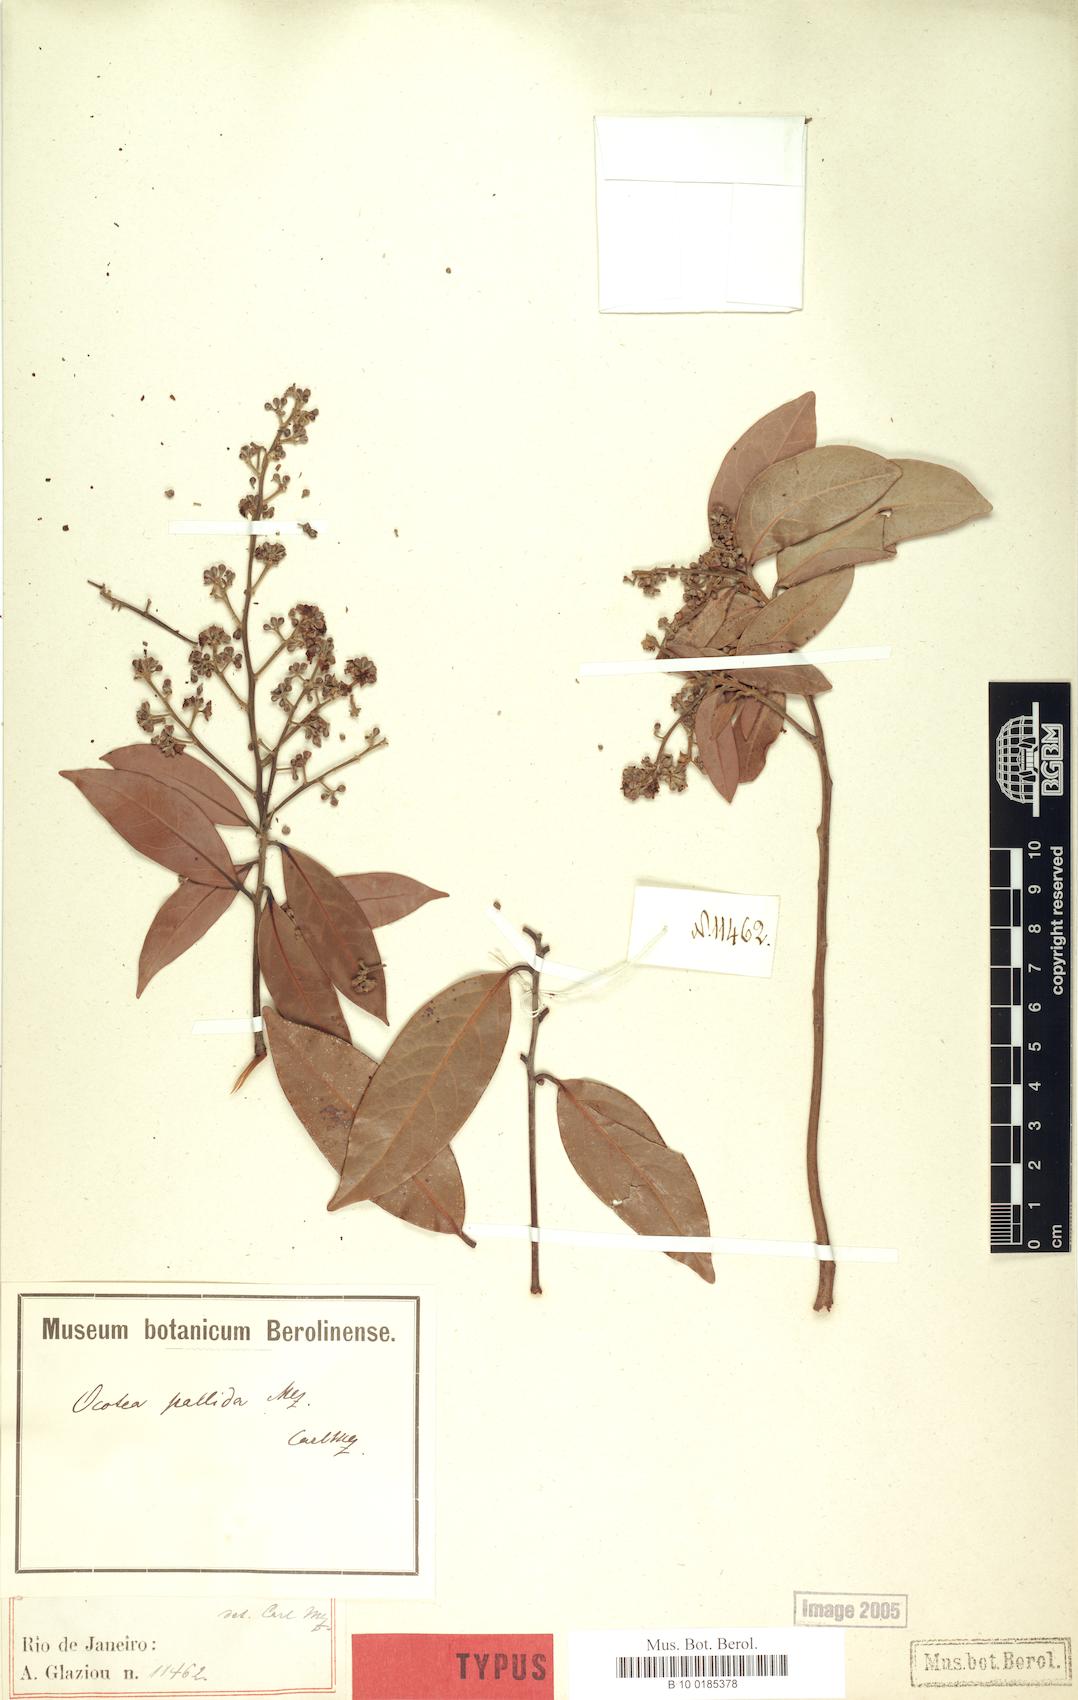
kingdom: Plantae
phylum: Tracheophyta
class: Magnoliopsida
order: Laurales
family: Lauraceae
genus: Ocotea
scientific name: Ocotea nitida
